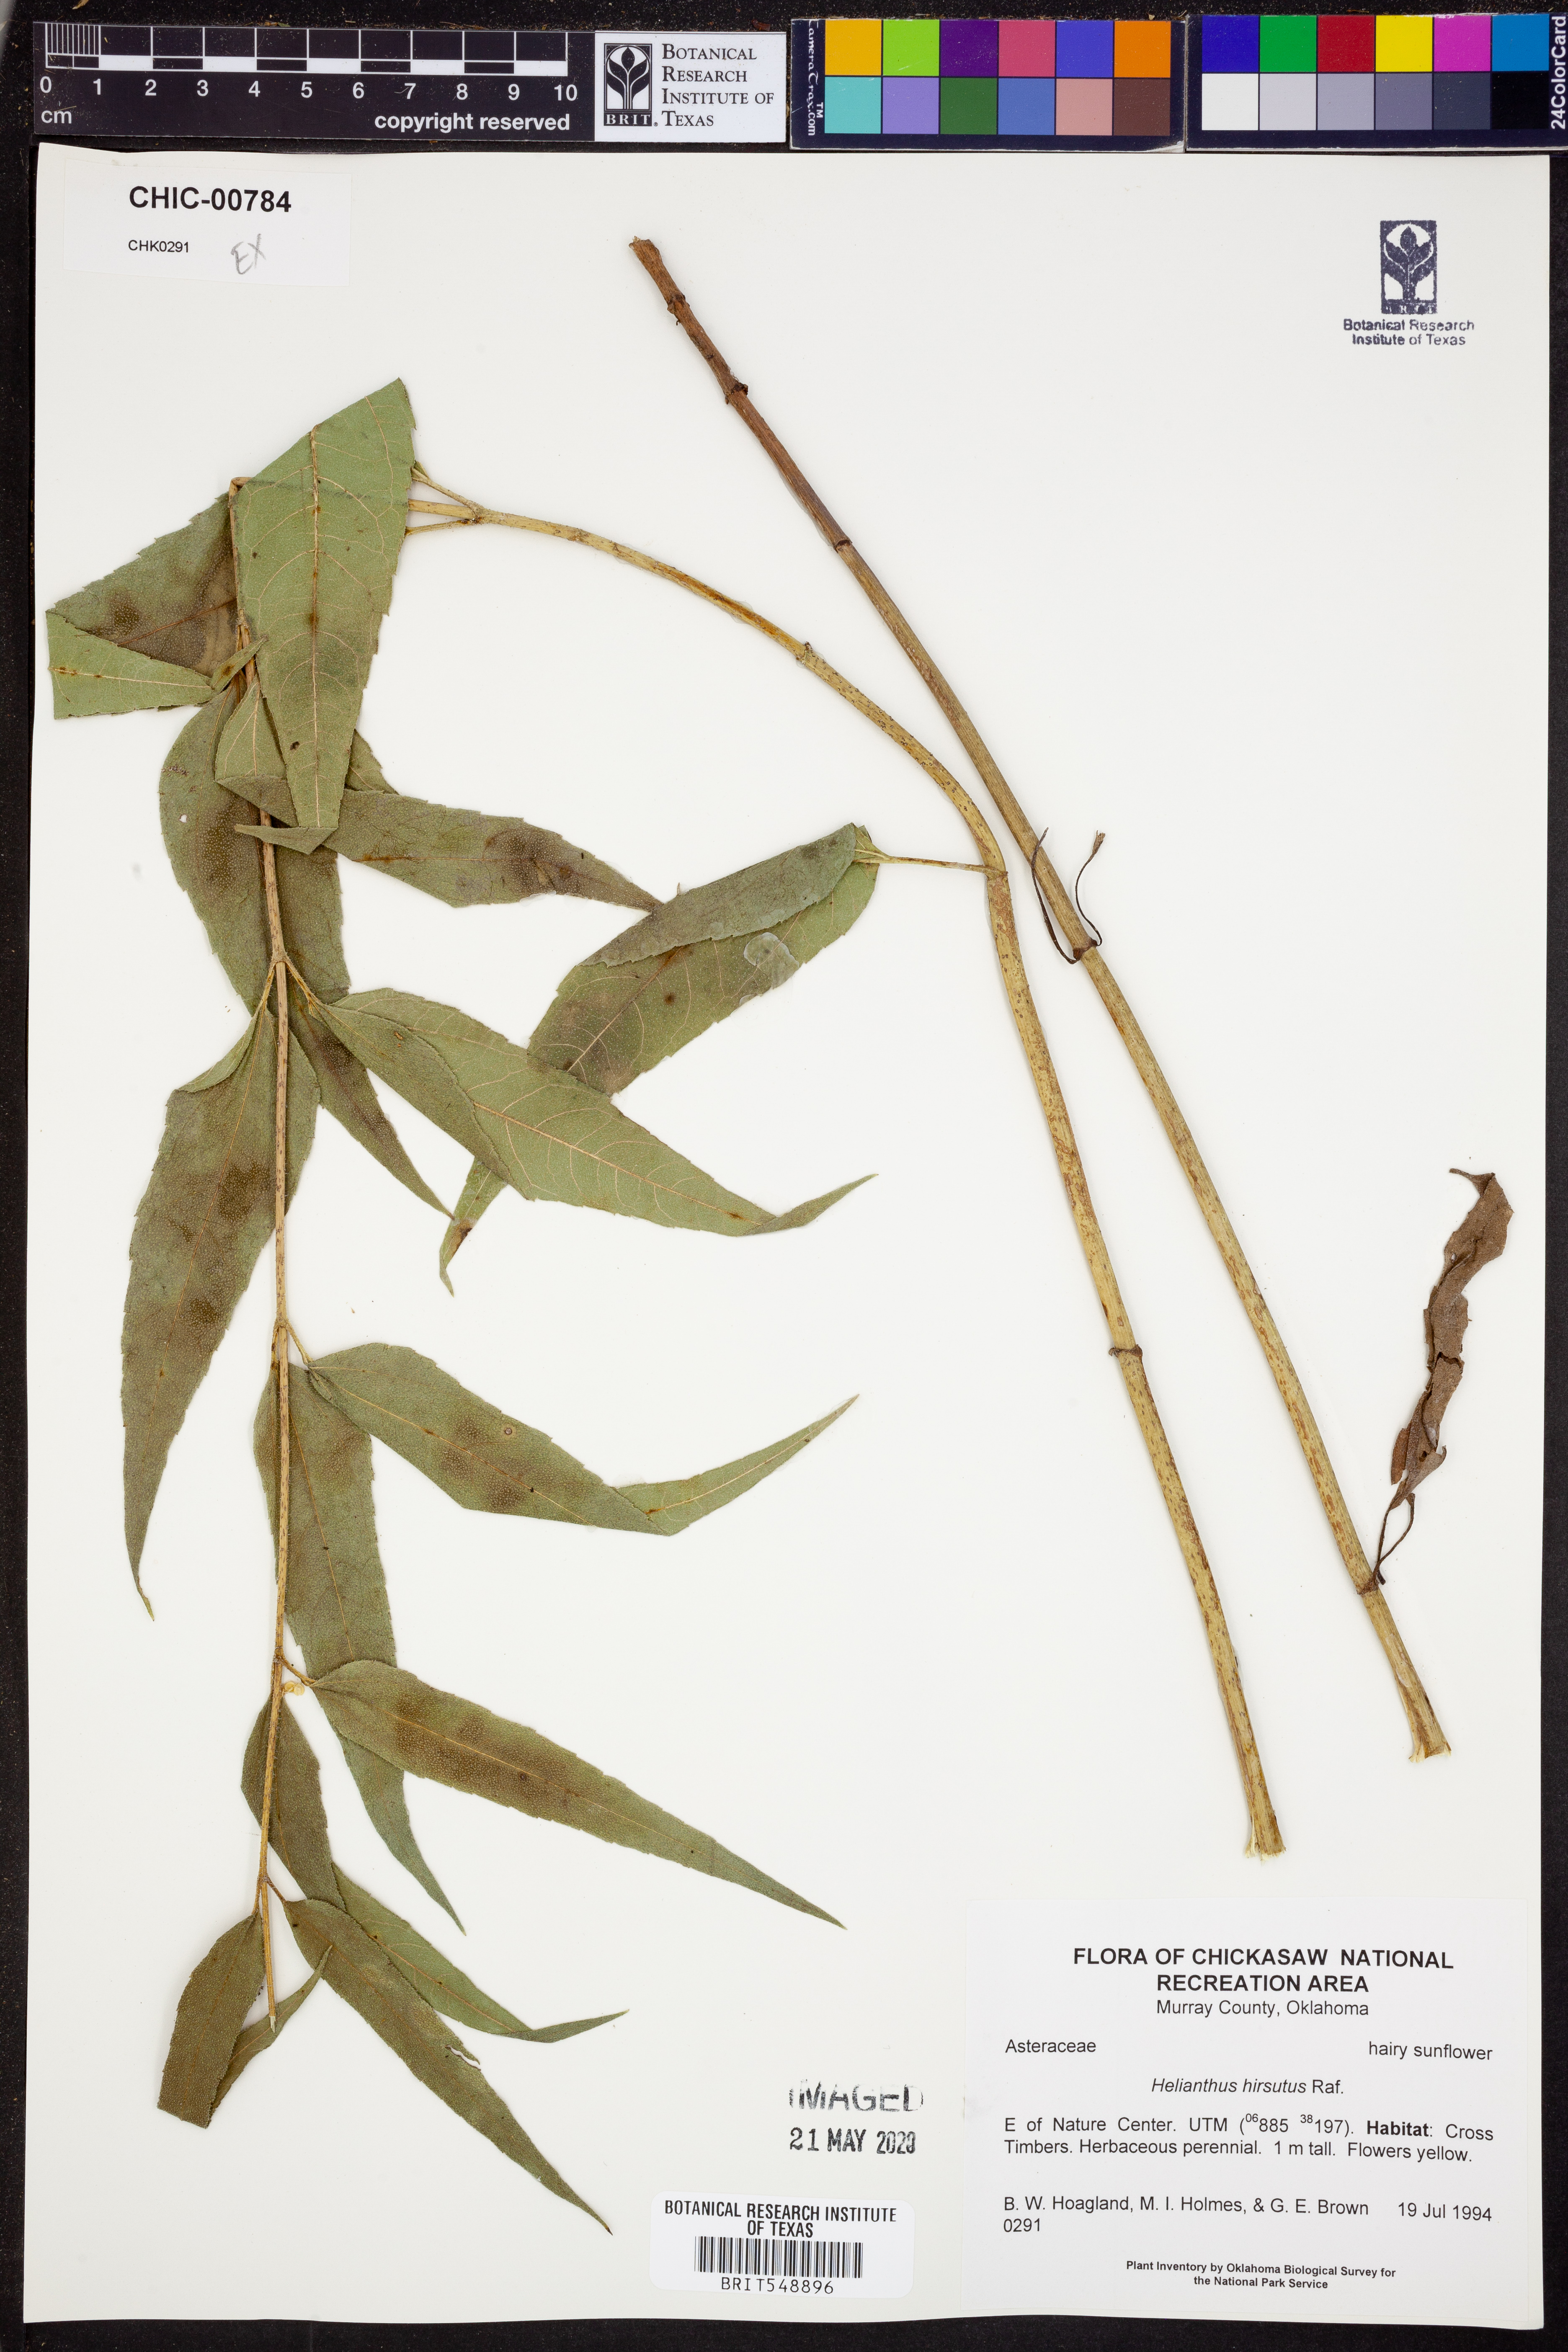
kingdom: Plantae
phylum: Tracheophyta
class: Magnoliopsida
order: Asterales
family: Asteraceae
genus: Helianthus
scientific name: Helianthus hirsutus
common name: Hairy sunflower
